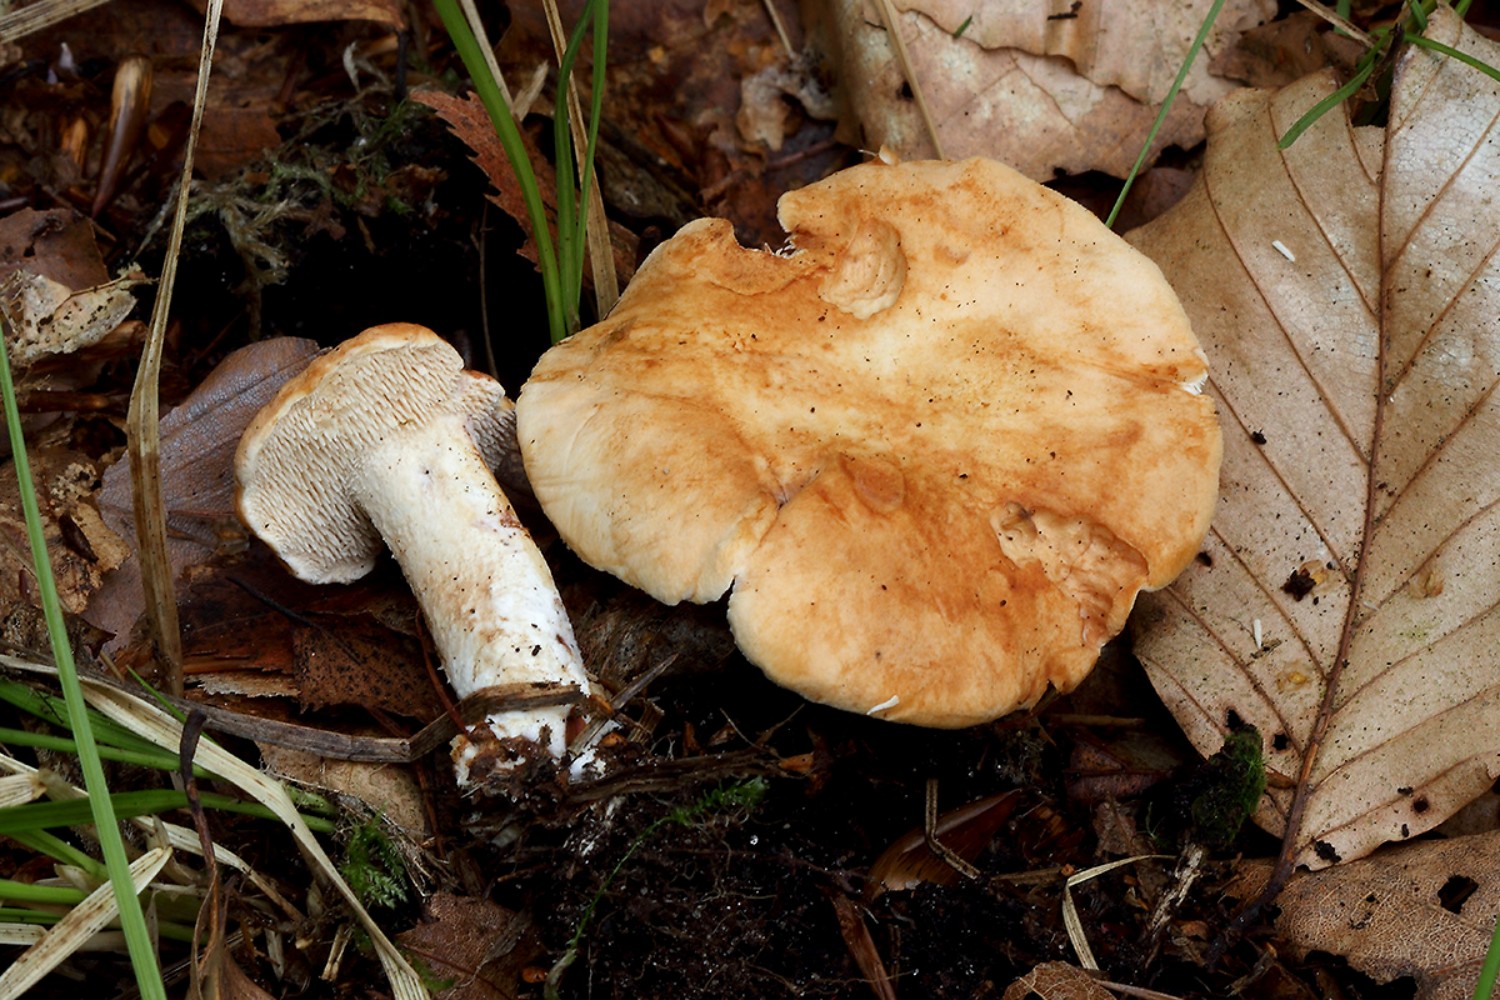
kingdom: Fungi
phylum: Basidiomycota
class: Agaricomycetes
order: Cantharellales
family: Hydnaceae
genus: Hydnum
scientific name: Hydnum ellipsosporum
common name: tandet pigsvamp
